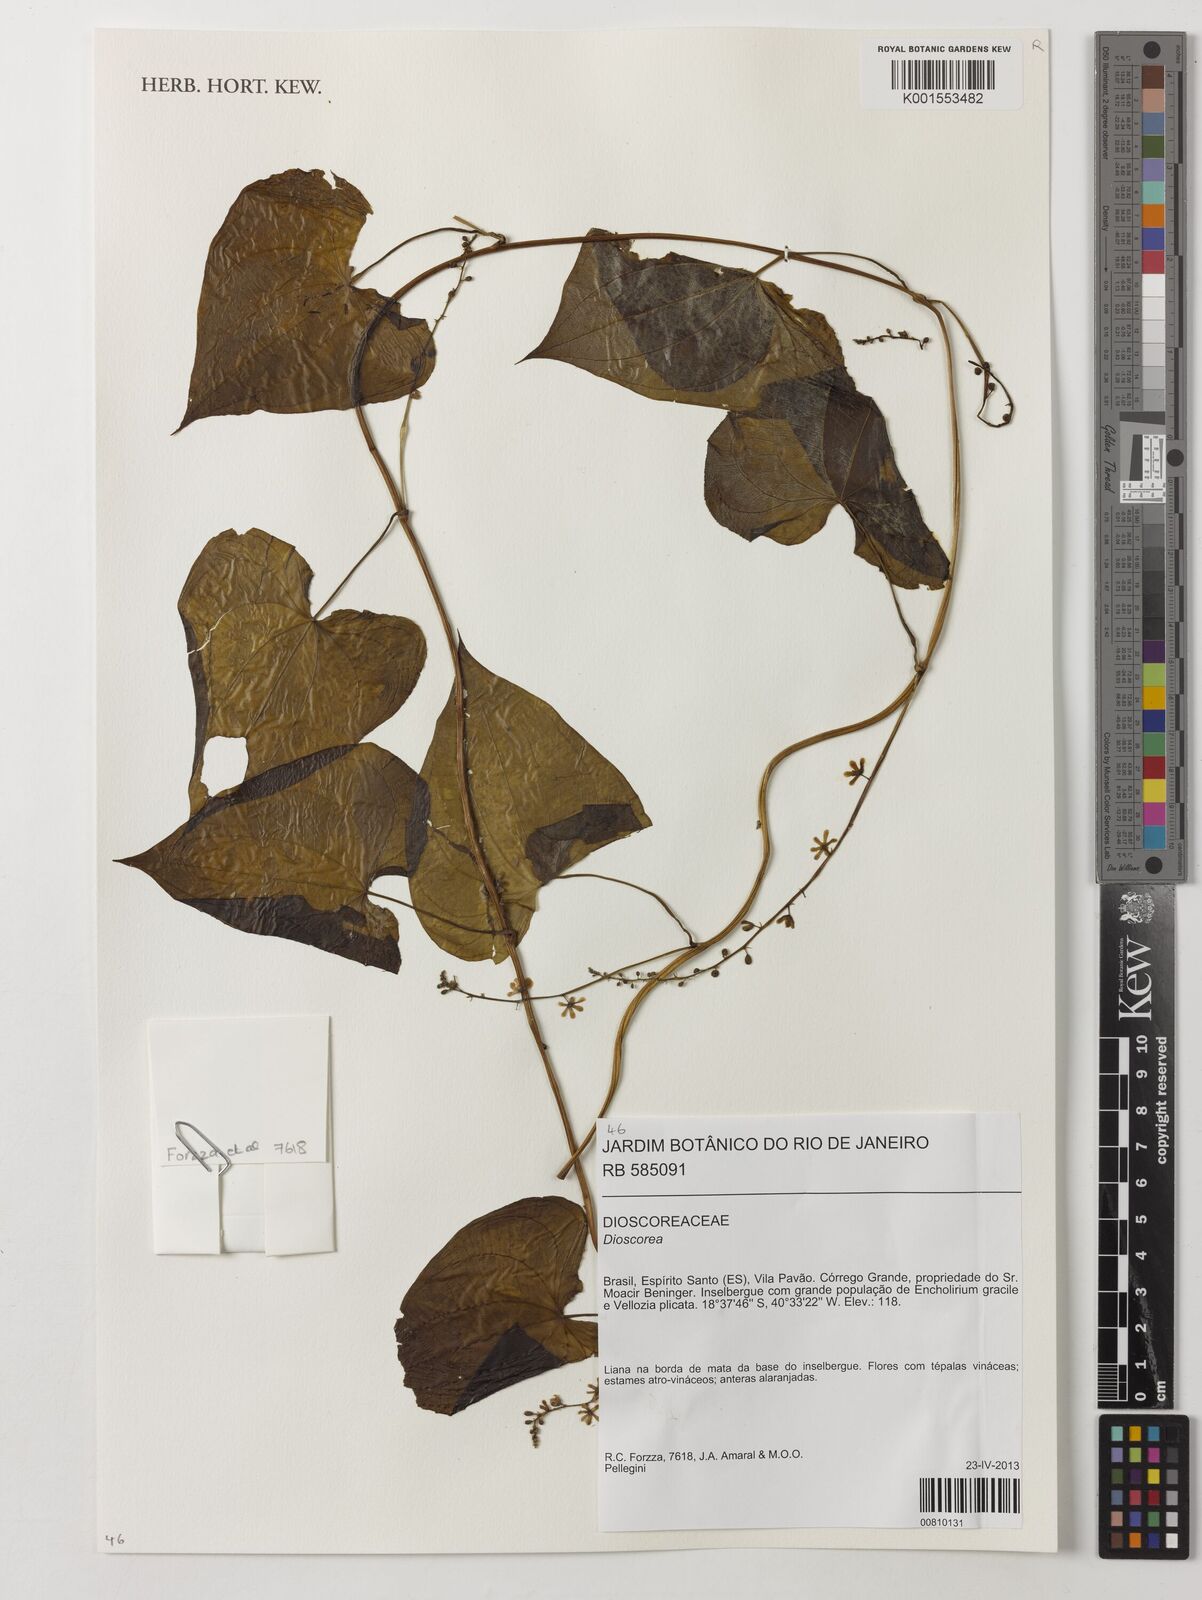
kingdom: Plantae
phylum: Tracheophyta
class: Liliopsida
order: Dioscoreales
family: Dioscoreaceae
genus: Dioscorea
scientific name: Dioscorea
